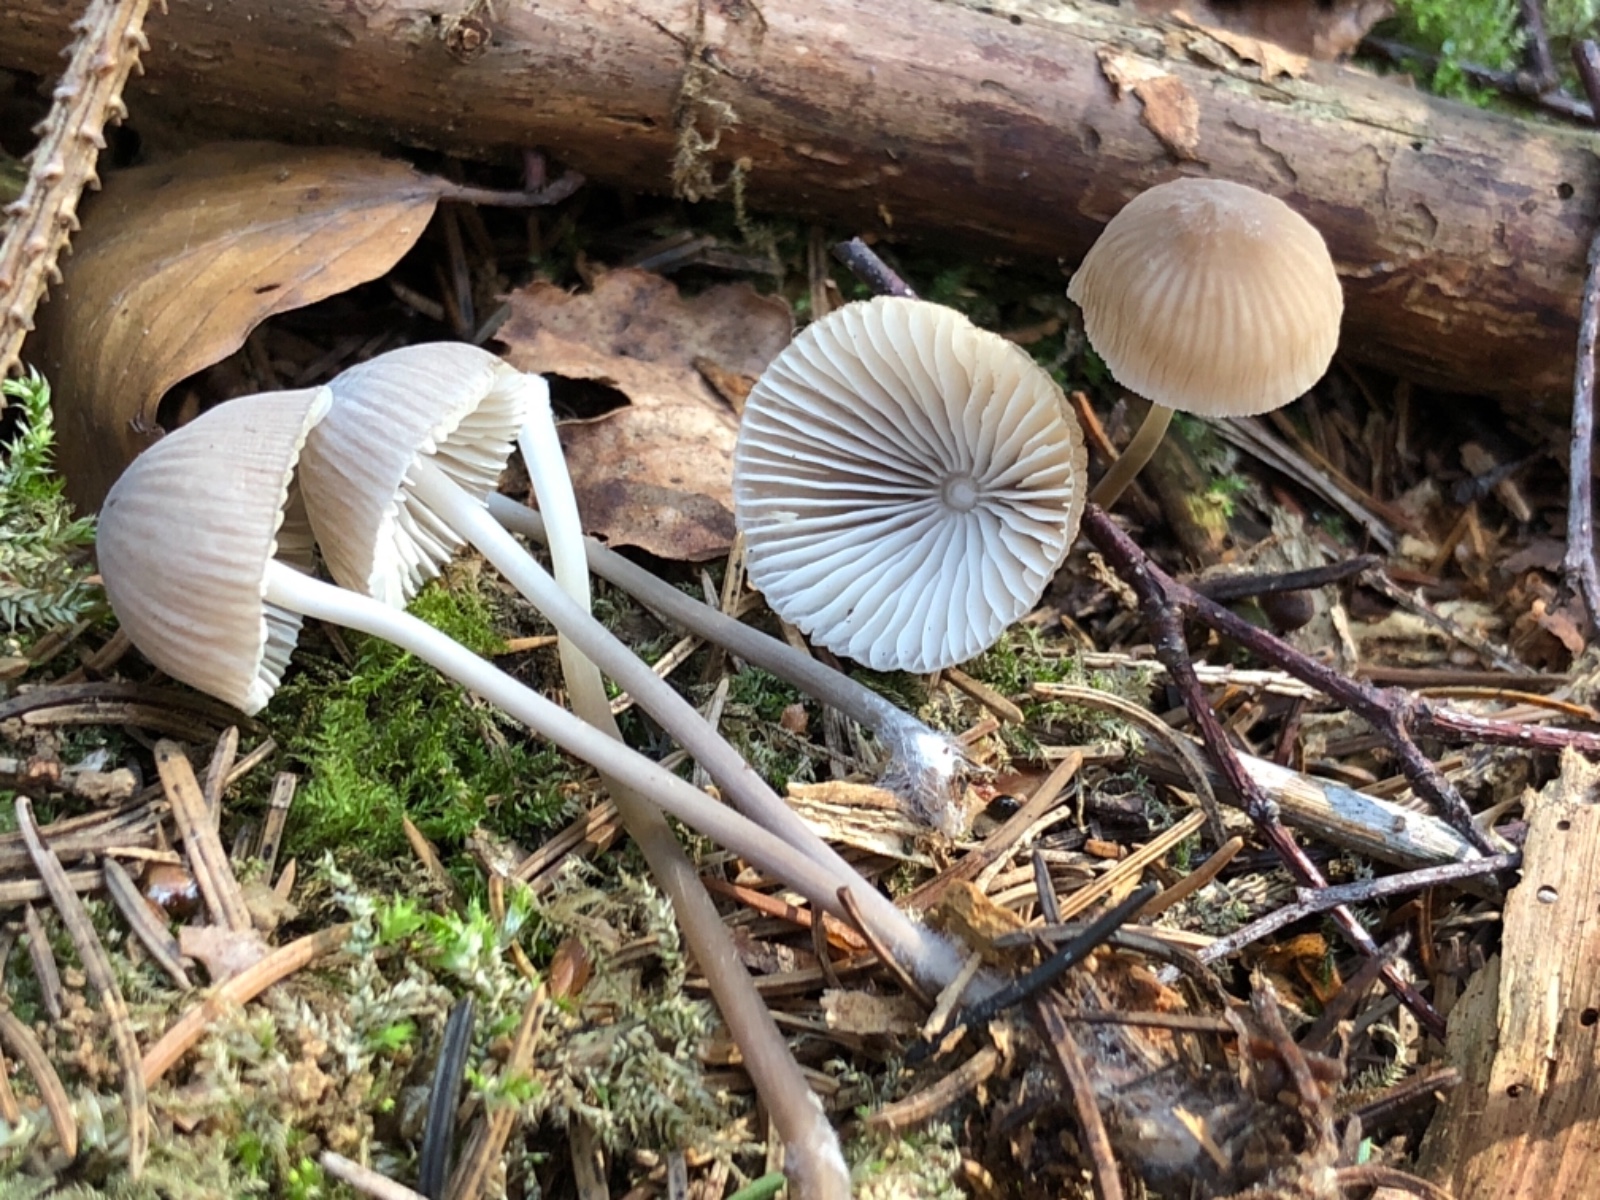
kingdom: Fungi
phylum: Basidiomycota
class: Agaricomycetes
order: Agaricales
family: Mycenaceae
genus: Mycena
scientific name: Mycena abramsii
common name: sommer-huesvamp
